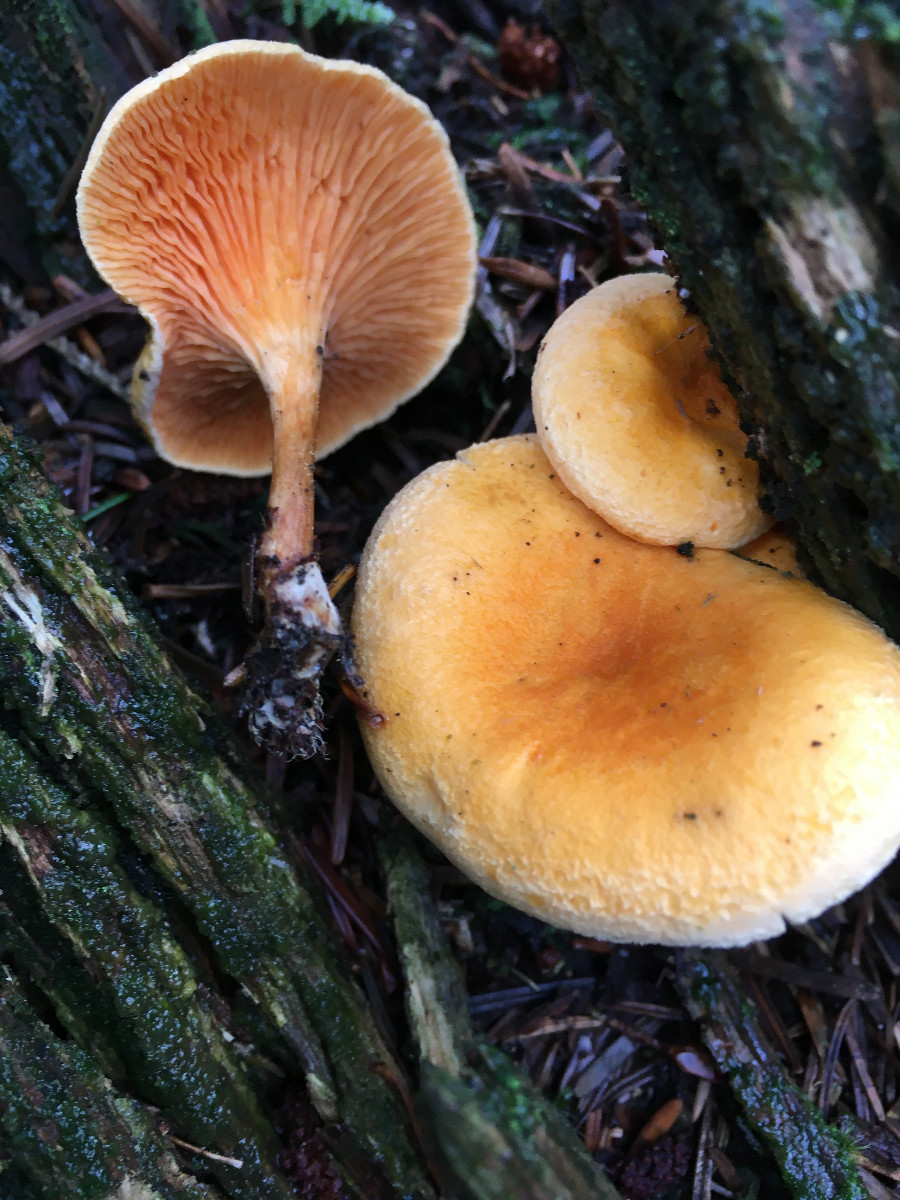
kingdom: Fungi
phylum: Basidiomycota
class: Agaricomycetes
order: Boletales
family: Hygrophoropsidaceae
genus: Hygrophoropsis
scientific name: Hygrophoropsis aurantiaca
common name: almindelig orangekantarel
